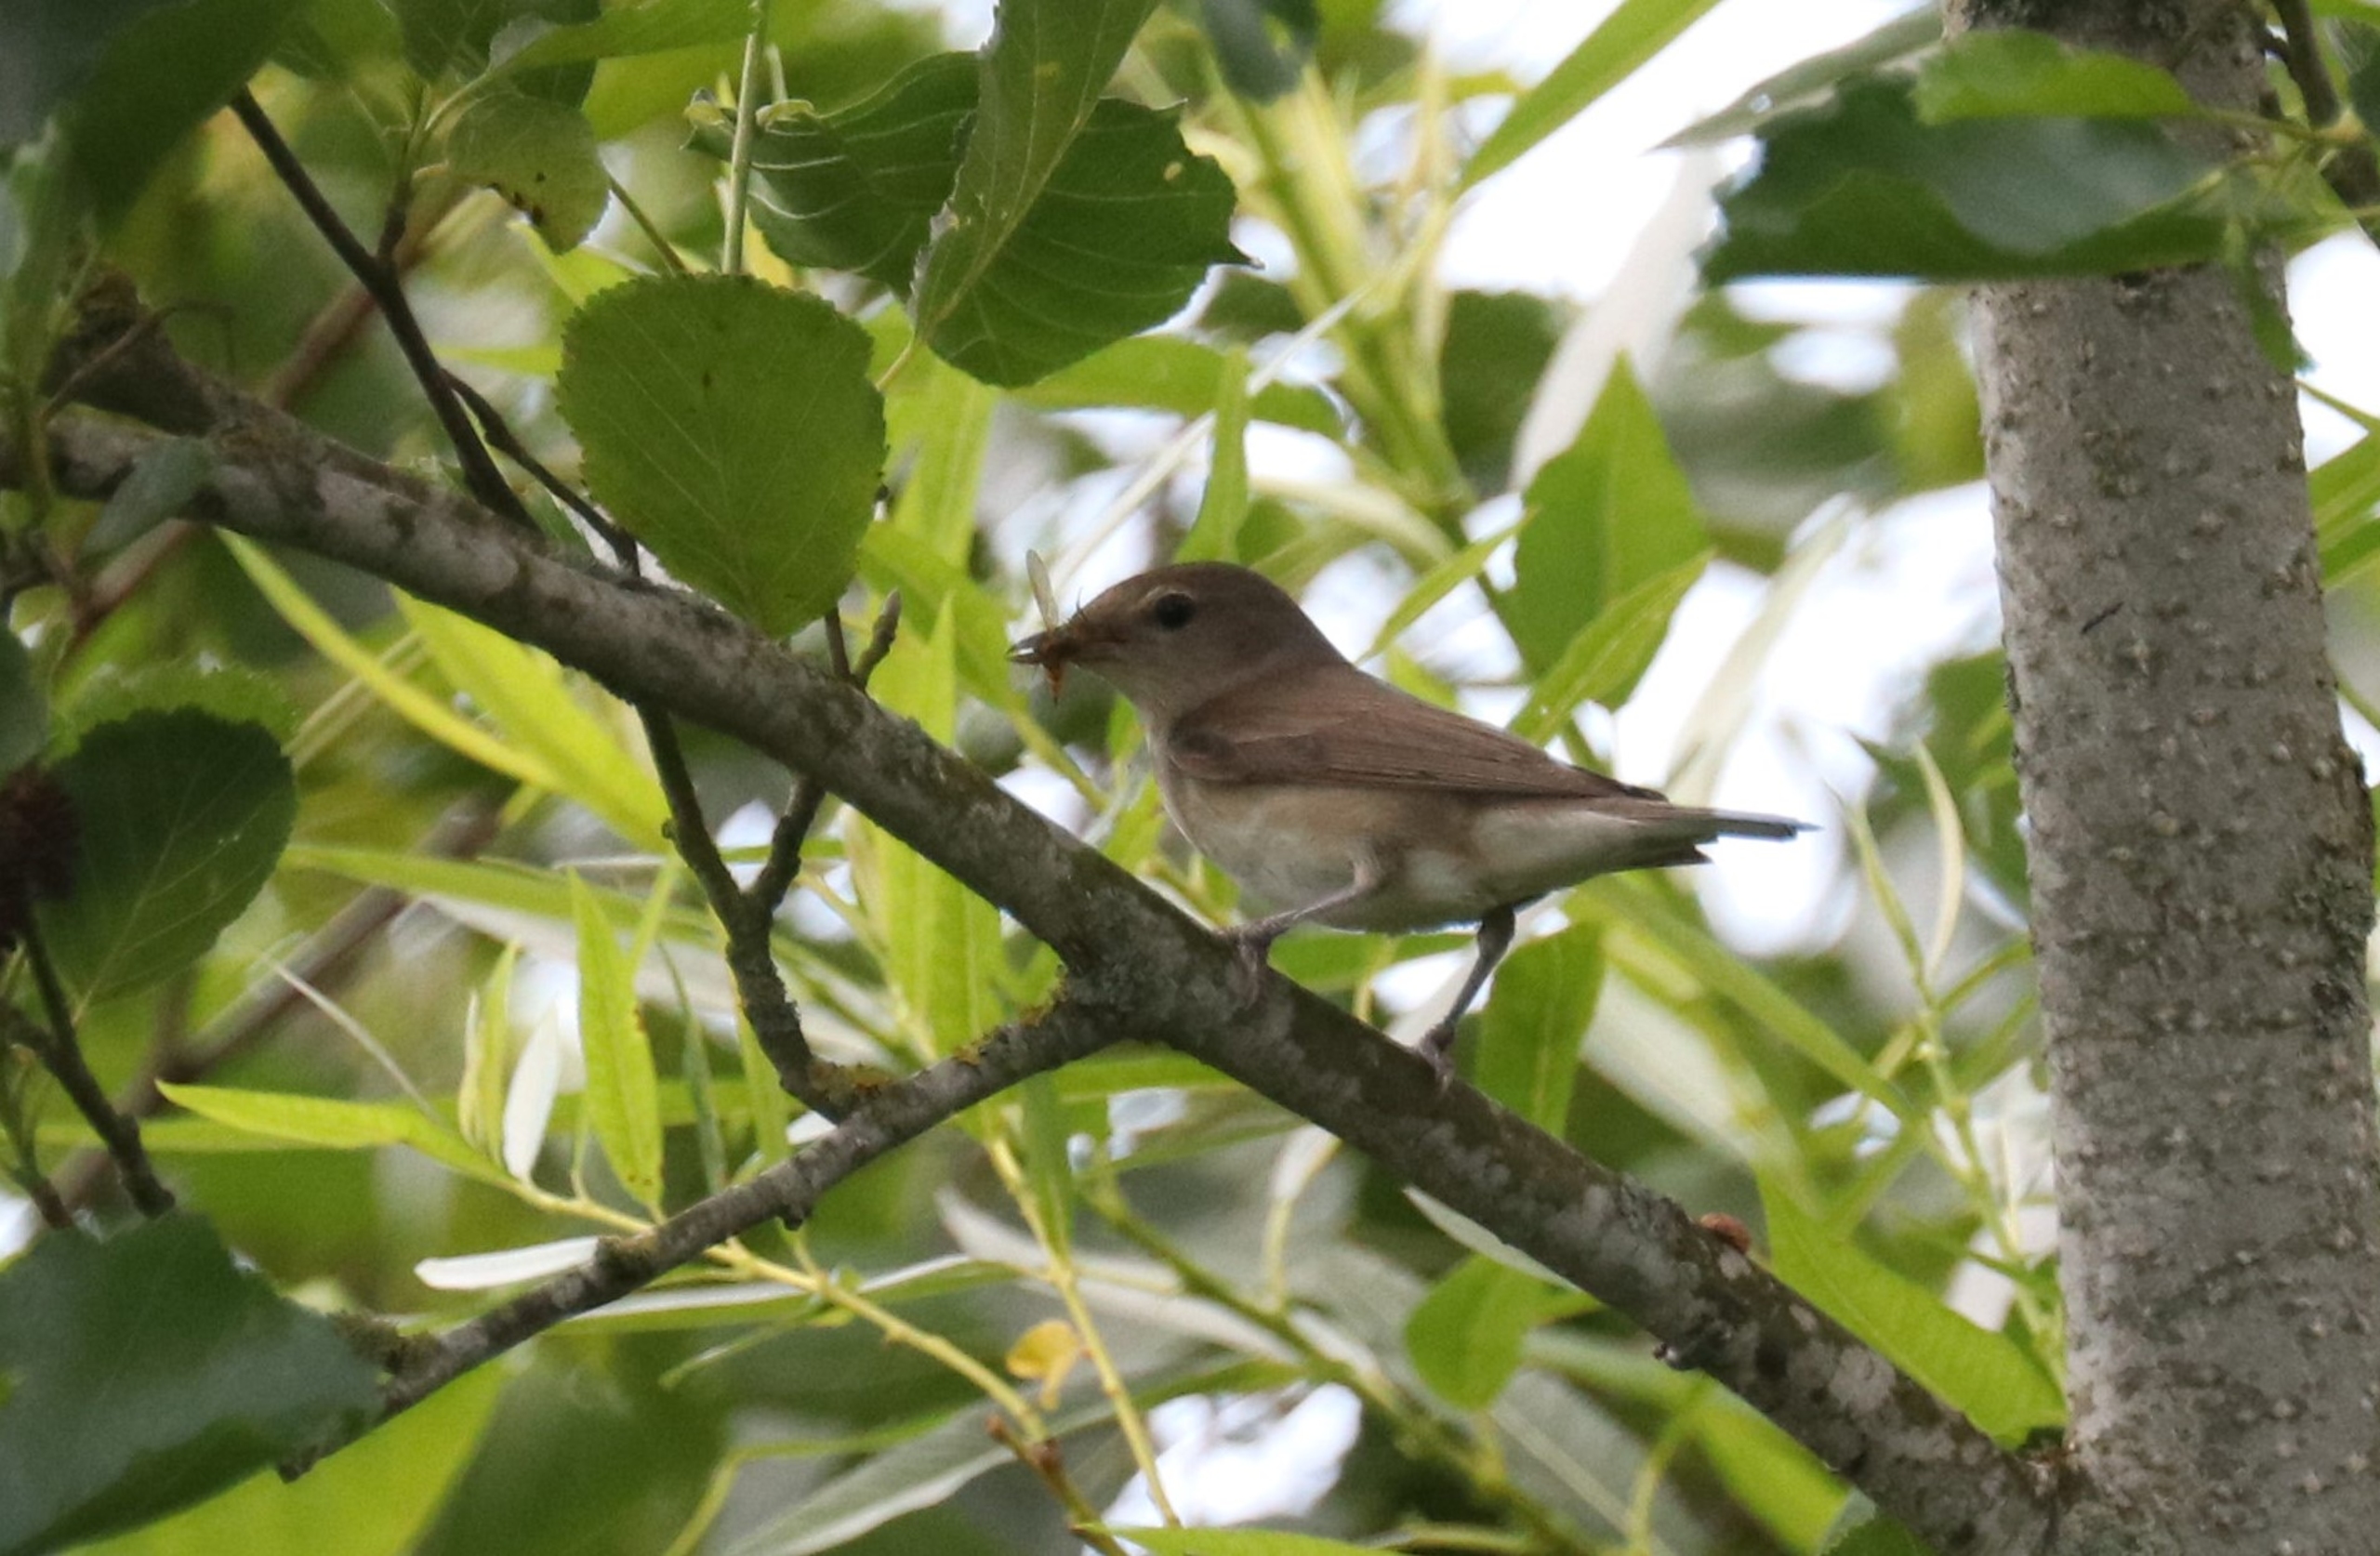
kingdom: Animalia
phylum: Chordata
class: Aves
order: Passeriformes
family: Sylviidae
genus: Sylvia
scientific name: Sylvia borin
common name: Havesanger
